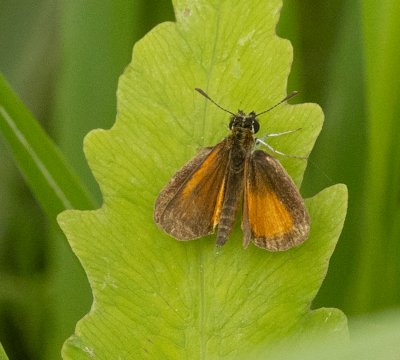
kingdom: Animalia
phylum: Arthropoda
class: Insecta
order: Lepidoptera
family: Hesperiidae
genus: Ancyloxypha
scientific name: Ancyloxypha numitor
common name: Least Skipper
